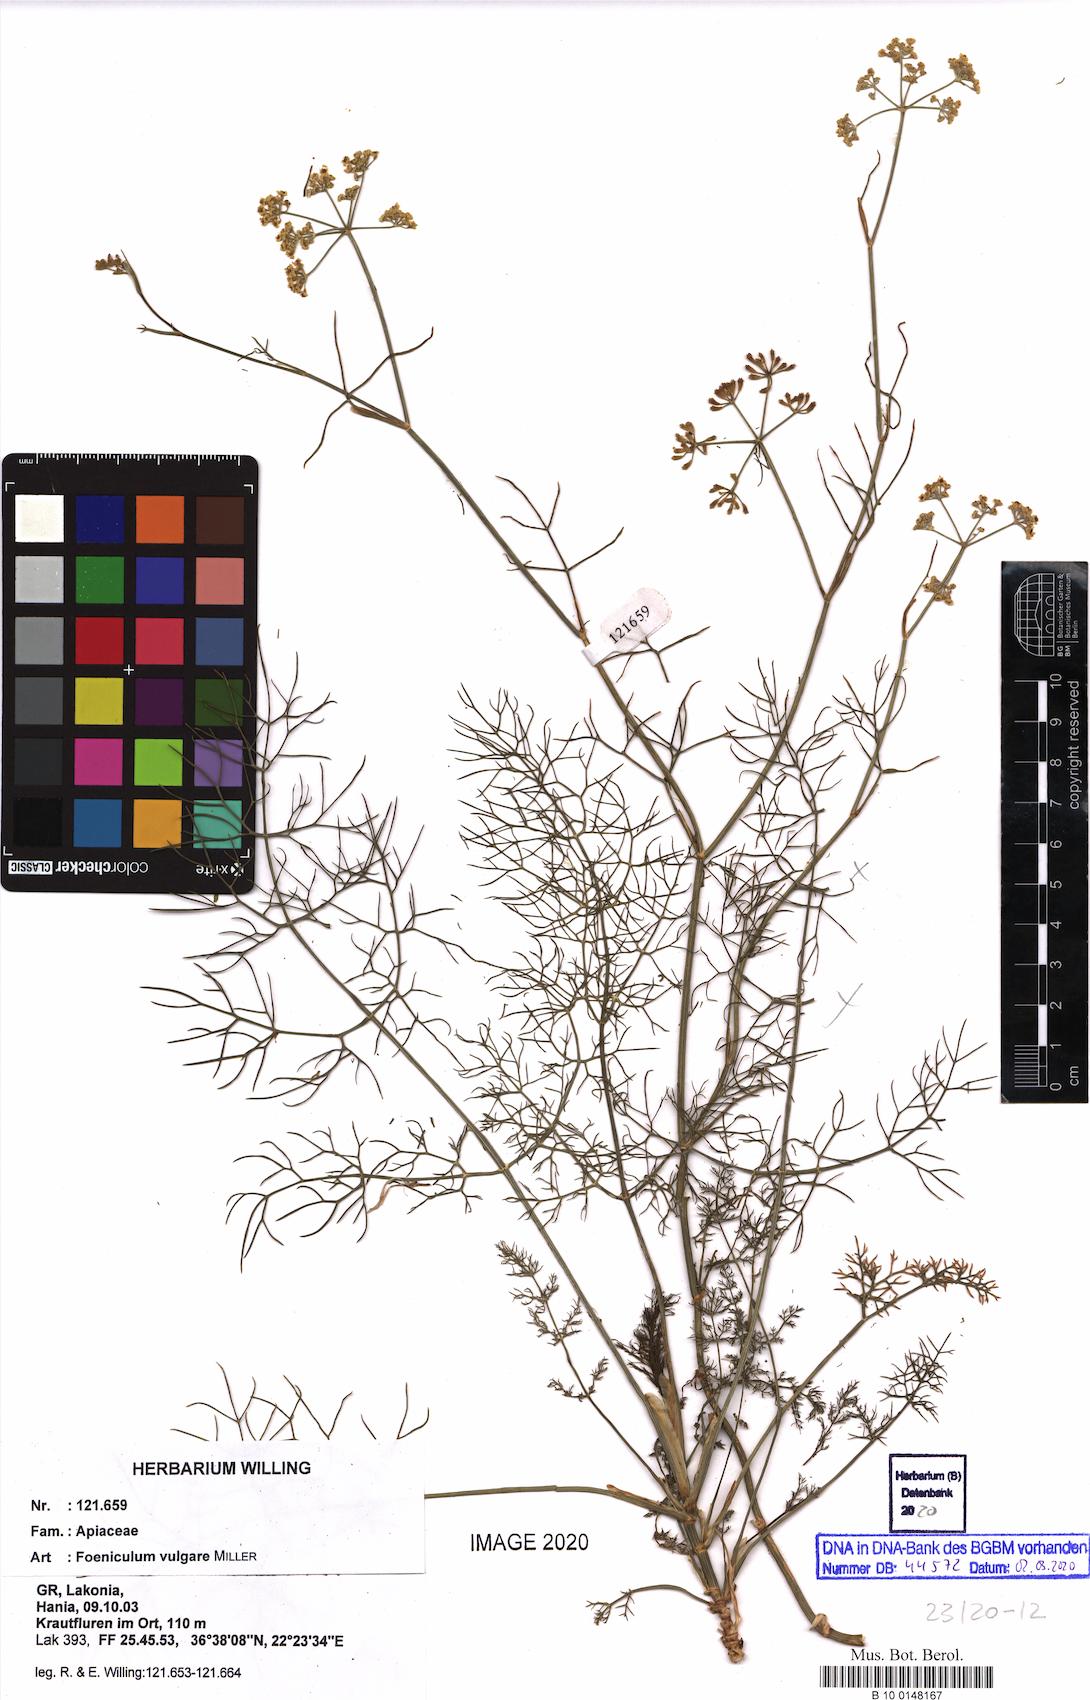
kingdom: Plantae
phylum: Tracheophyta
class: Magnoliopsida
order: Apiales
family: Apiaceae
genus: Foeniculum
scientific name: Foeniculum vulgare
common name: Fennel
